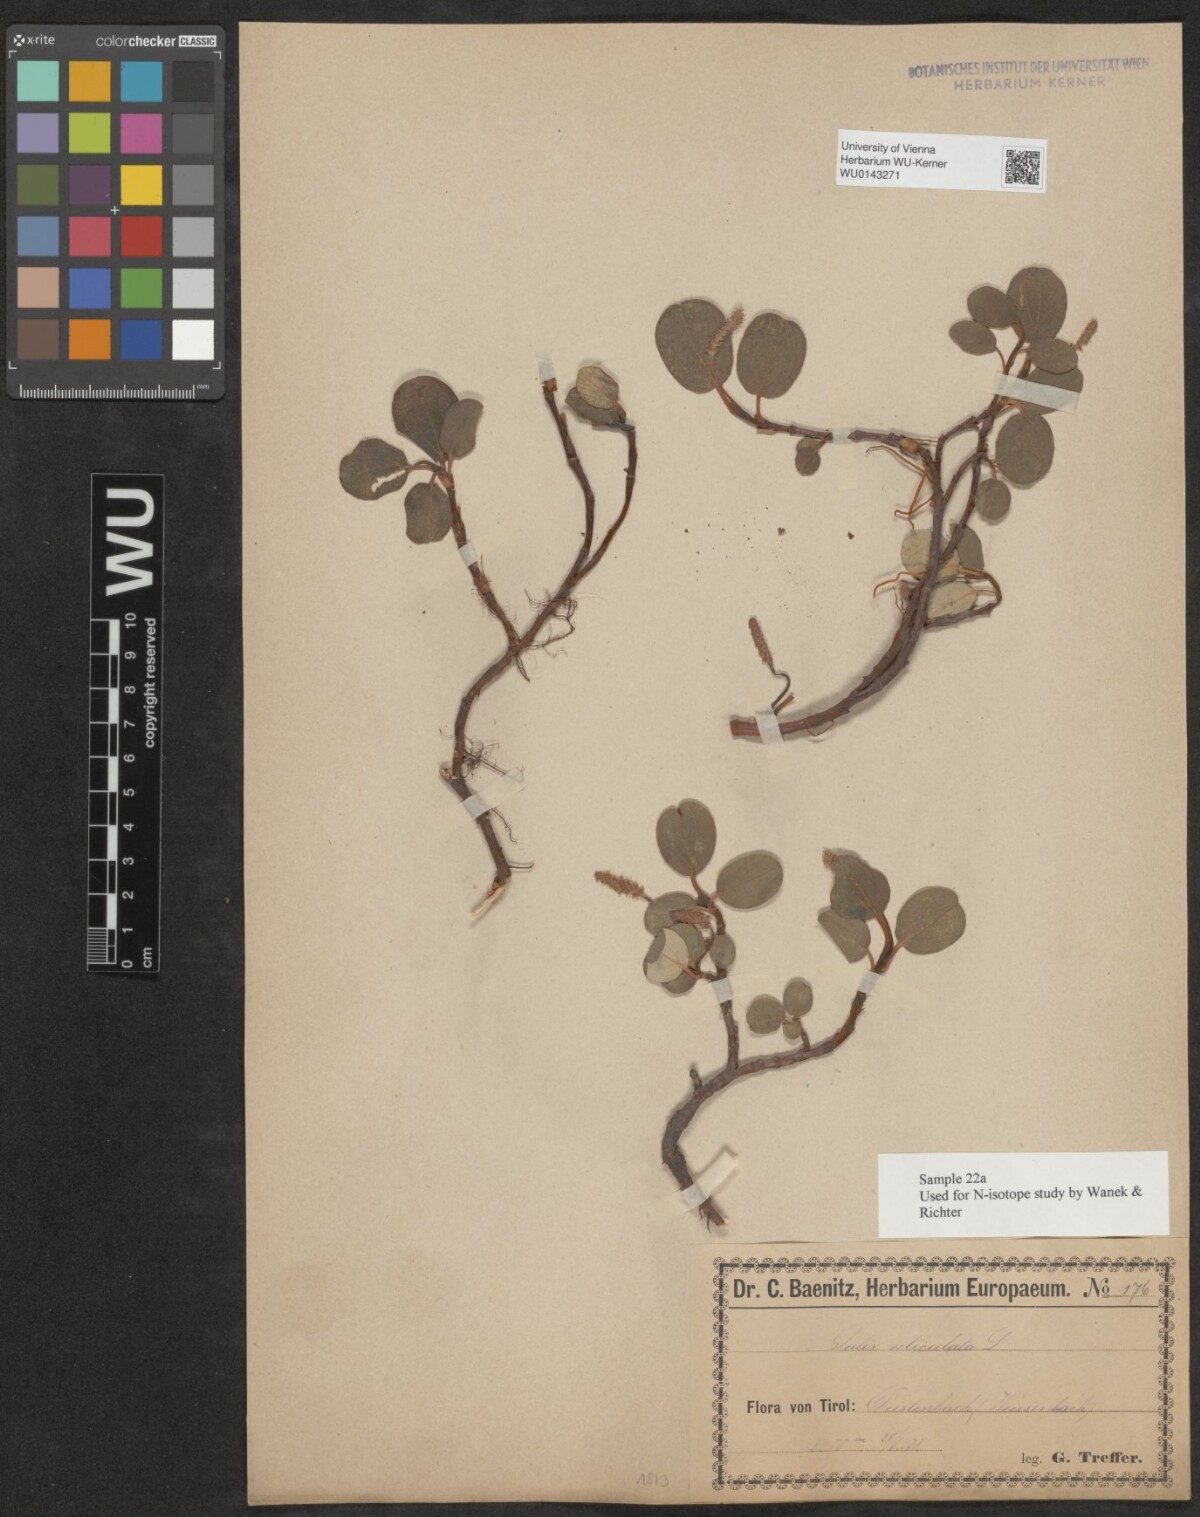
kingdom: Plantae
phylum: Tracheophyta
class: Magnoliopsida
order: Malpighiales
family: Salicaceae
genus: Salix
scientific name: Salix reticulata
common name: Net-leaved willow
